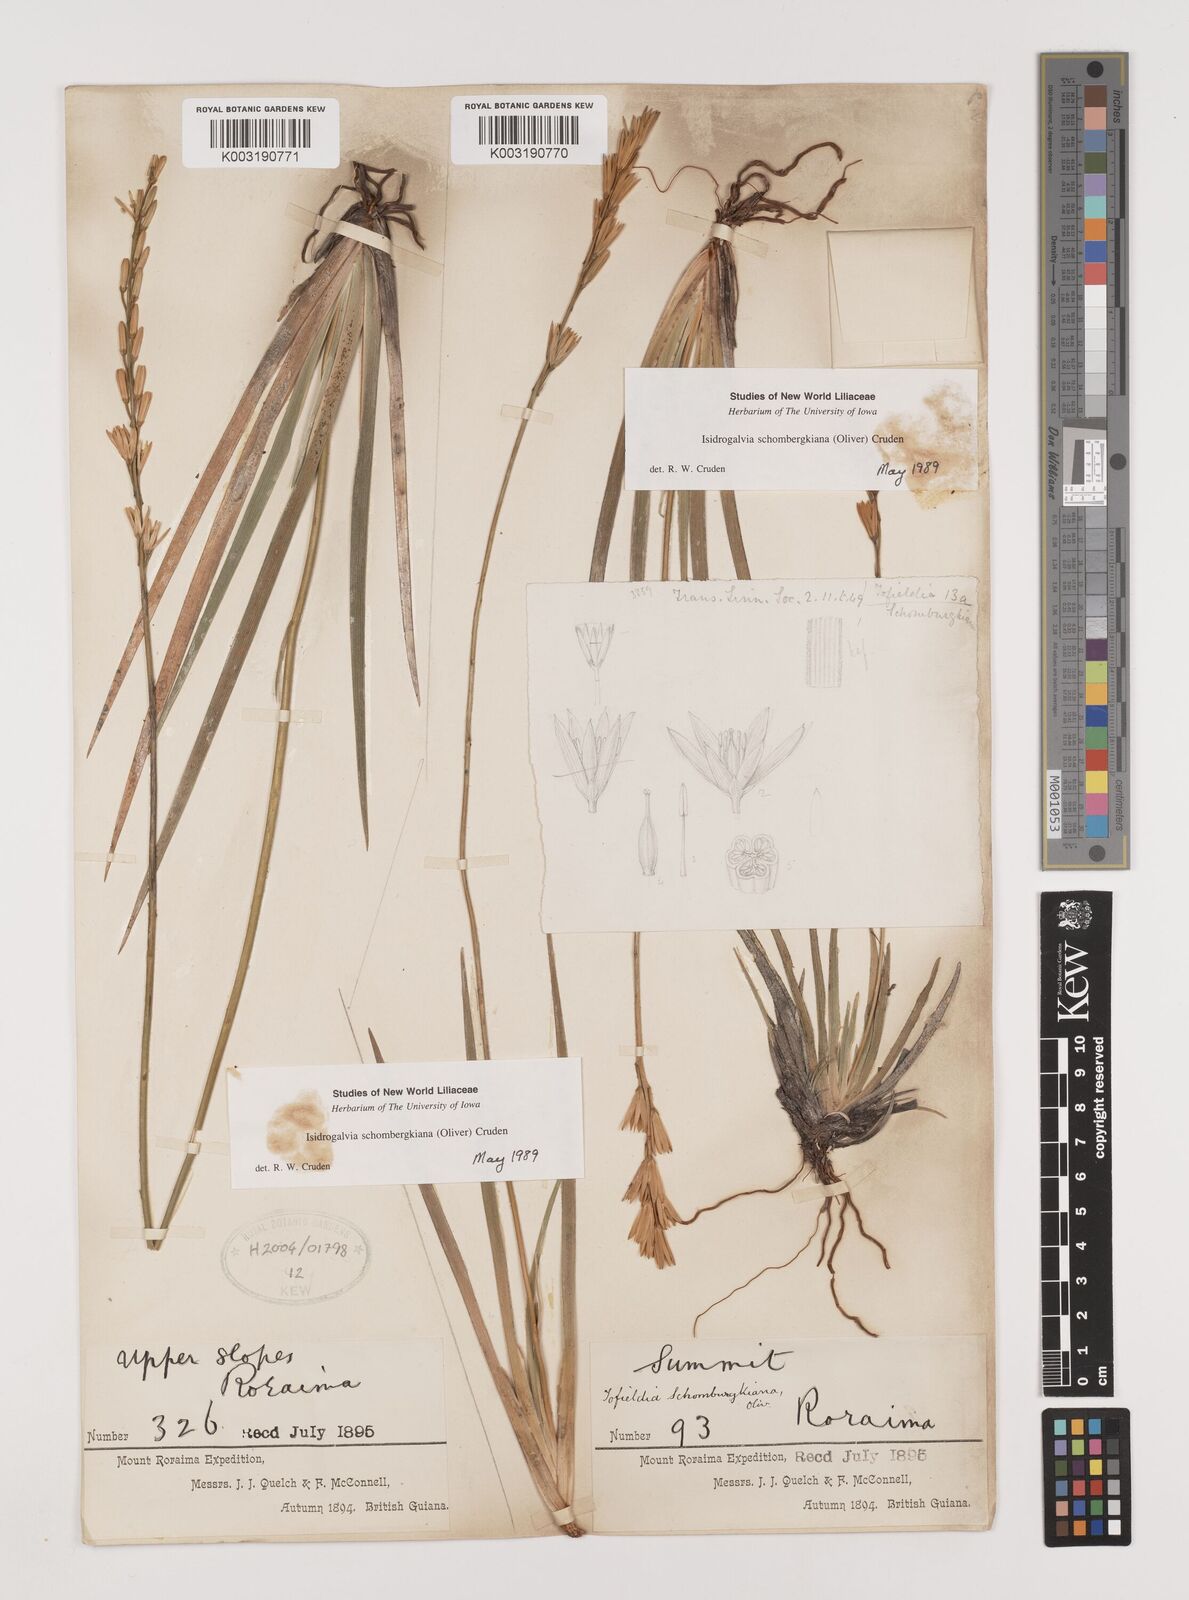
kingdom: Plantae
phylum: Tracheophyta
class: Liliopsida
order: Alismatales
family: Tofieldiaceae
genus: Harperocallis
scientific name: Harperocallis schomburgkiana
